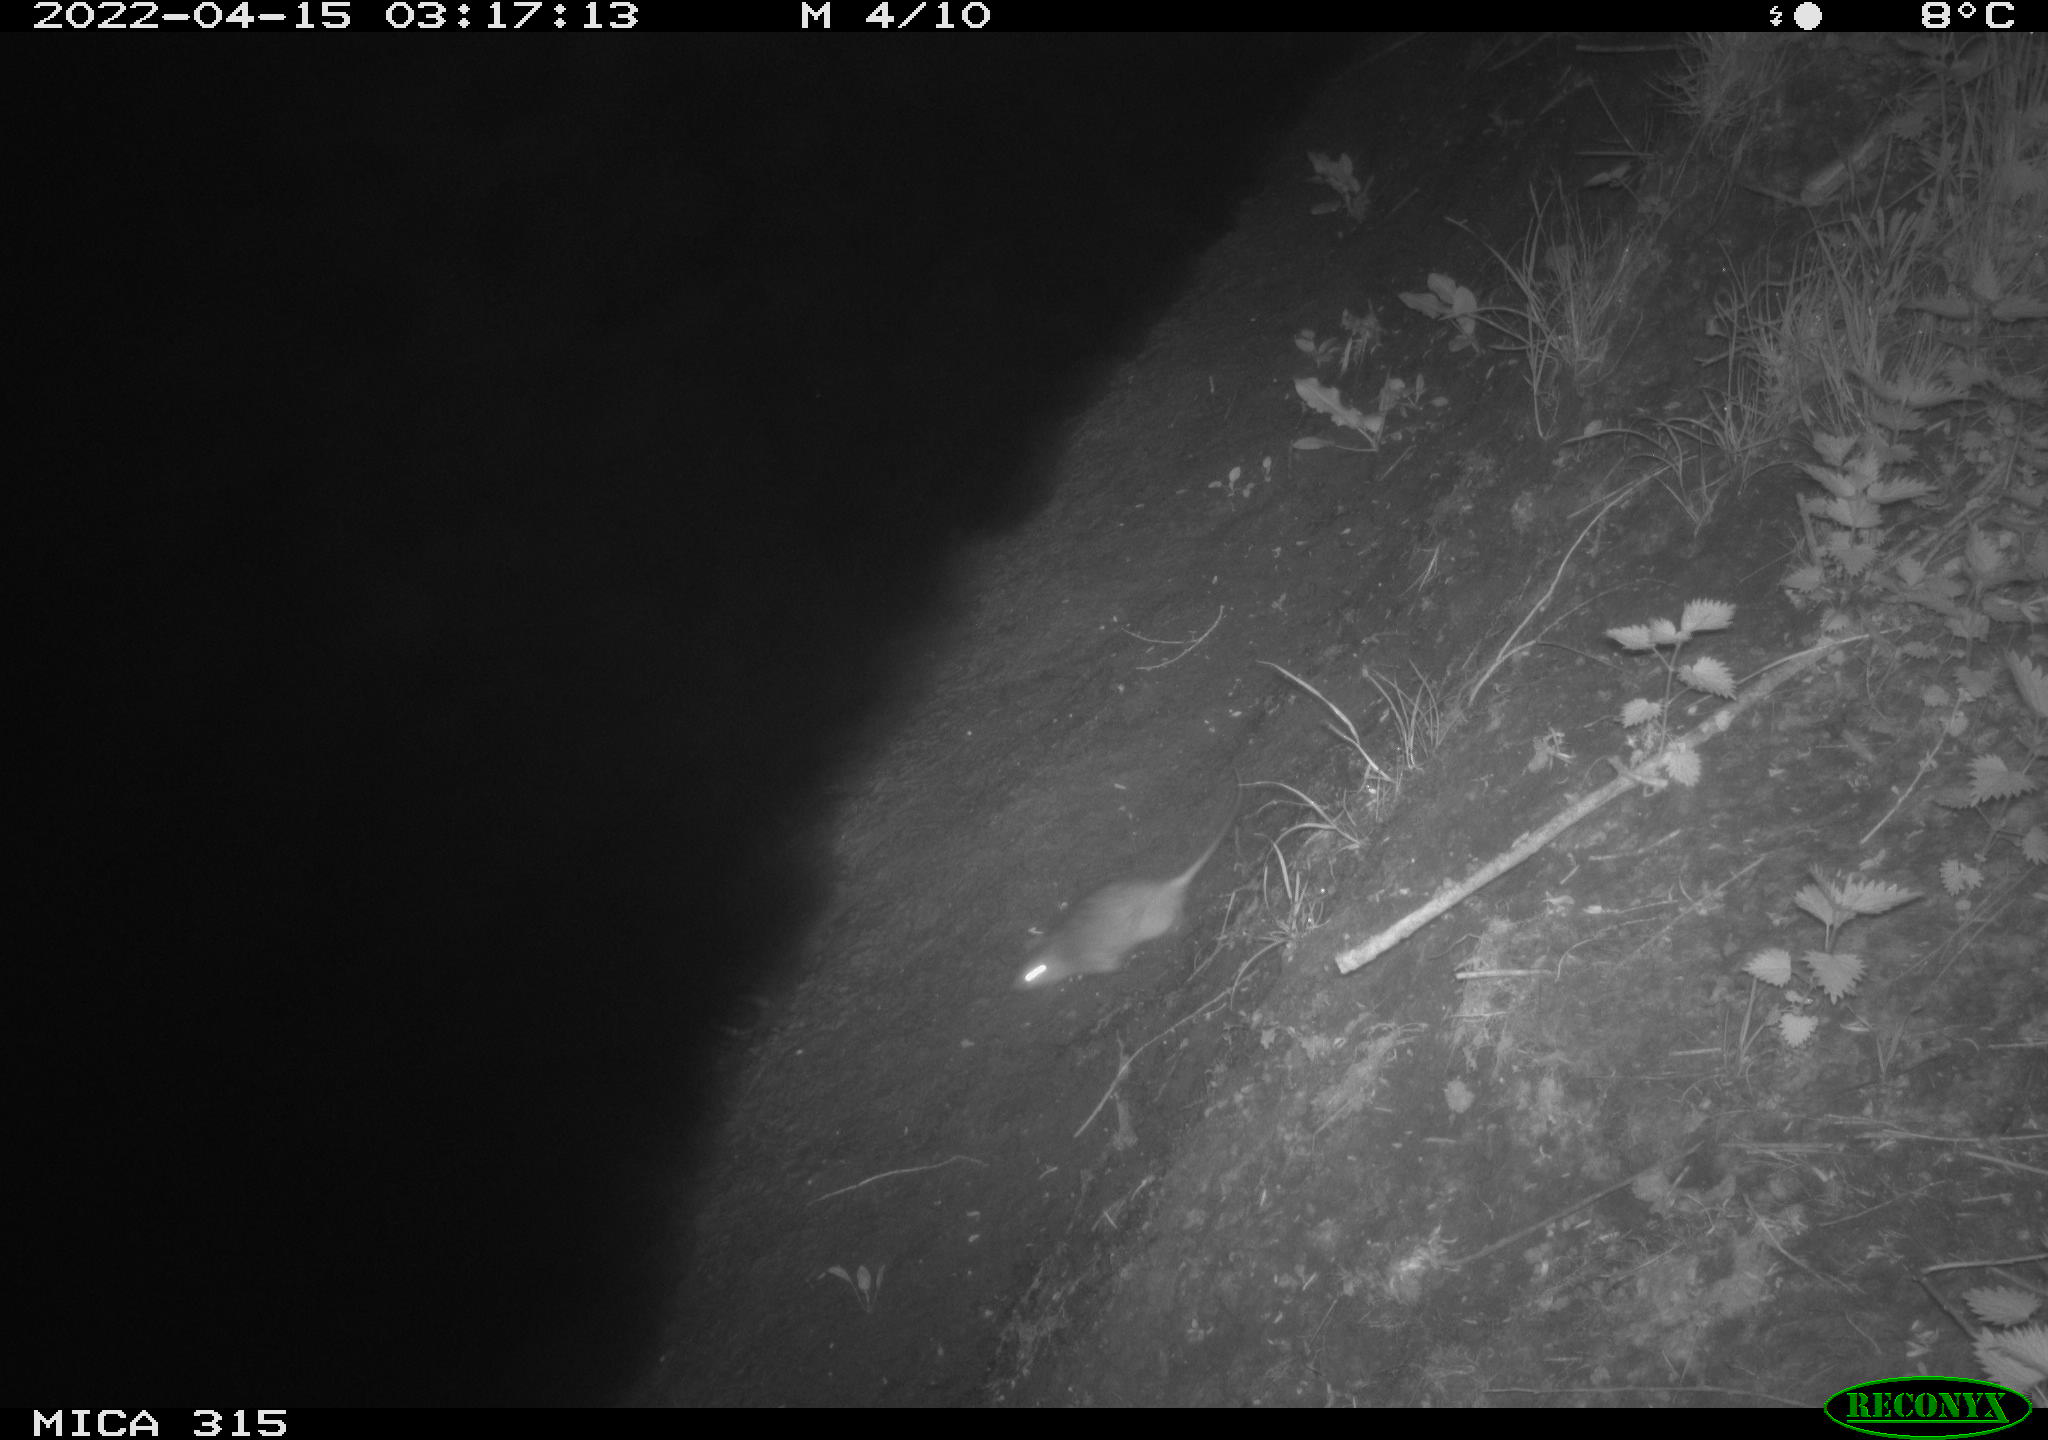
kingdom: Animalia
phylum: Chordata
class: Mammalia
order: Rodentia
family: Muridae
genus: Rattus
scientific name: Rattus norvegicus
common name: Brown rat
